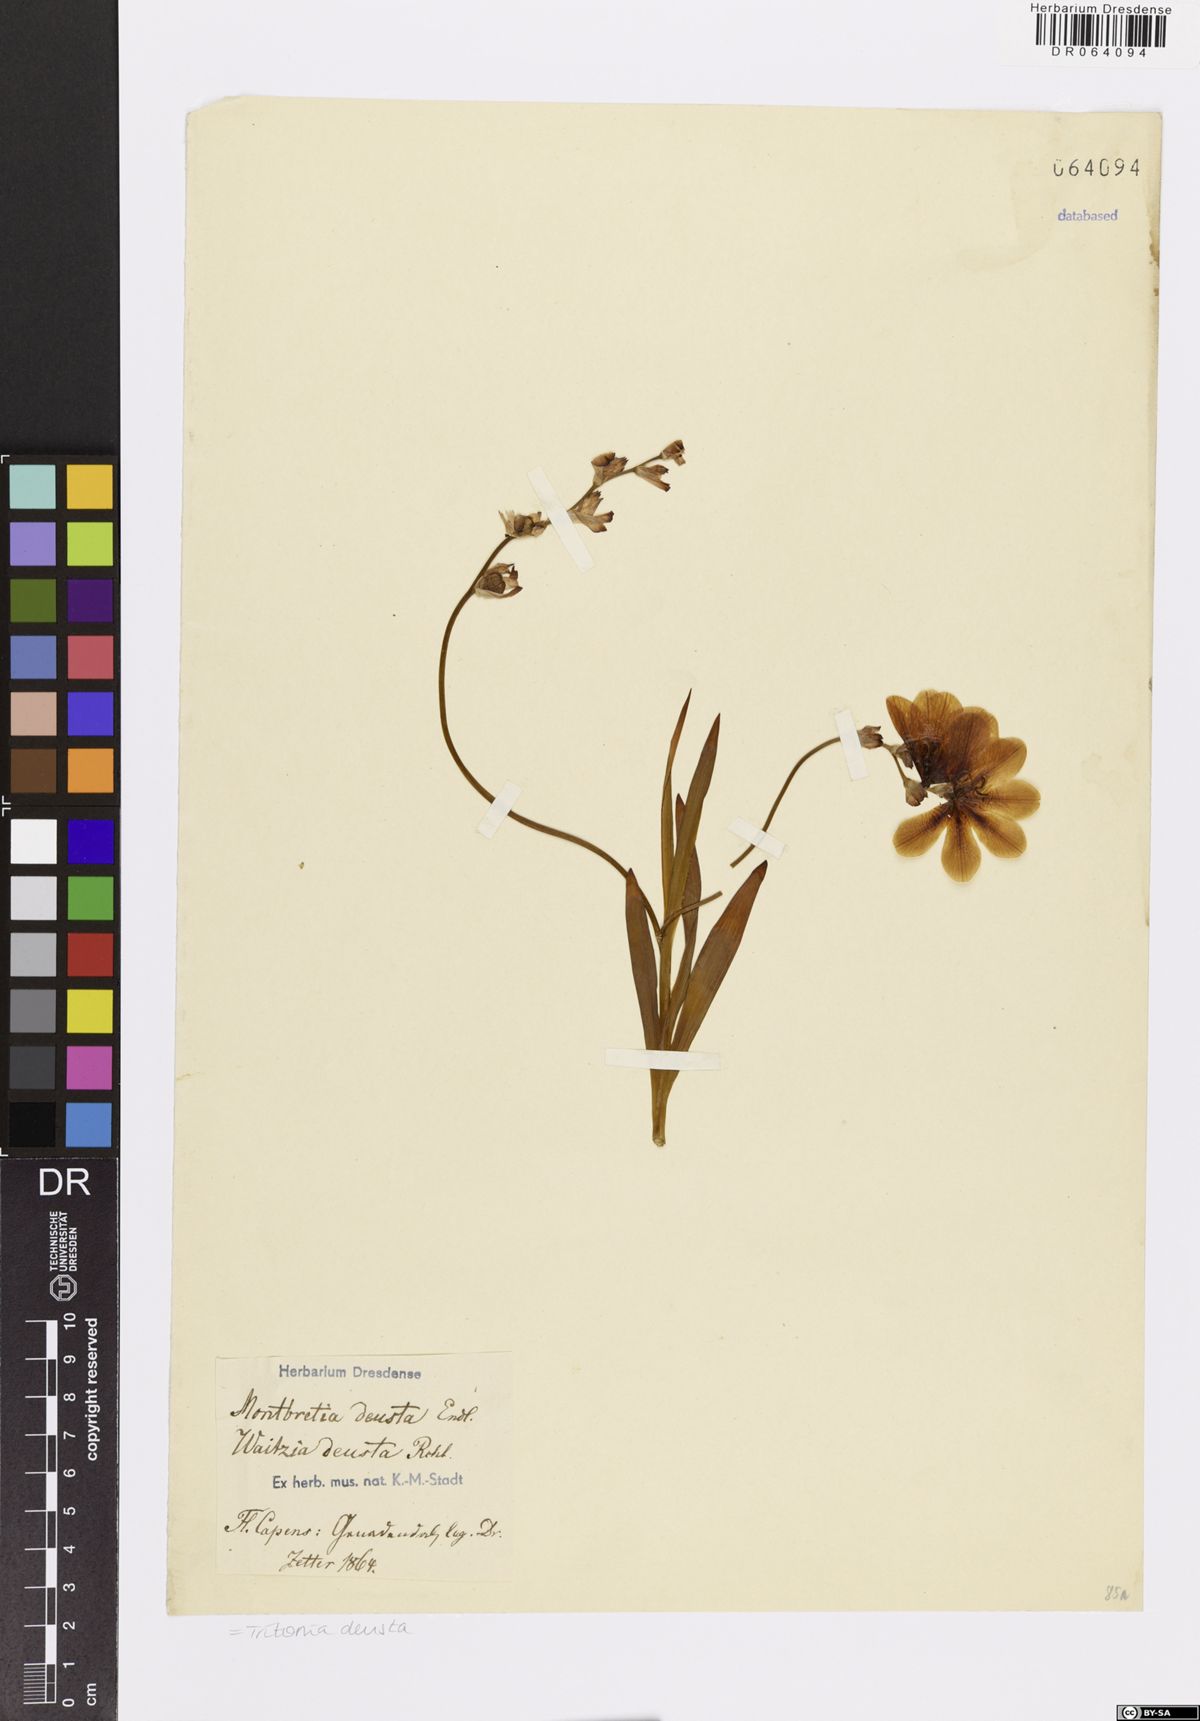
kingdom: Plantae
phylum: Tracheophyta
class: Liliopsida
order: Asparagales
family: Iridaceae
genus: Tritonia
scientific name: Tritonia deusta
